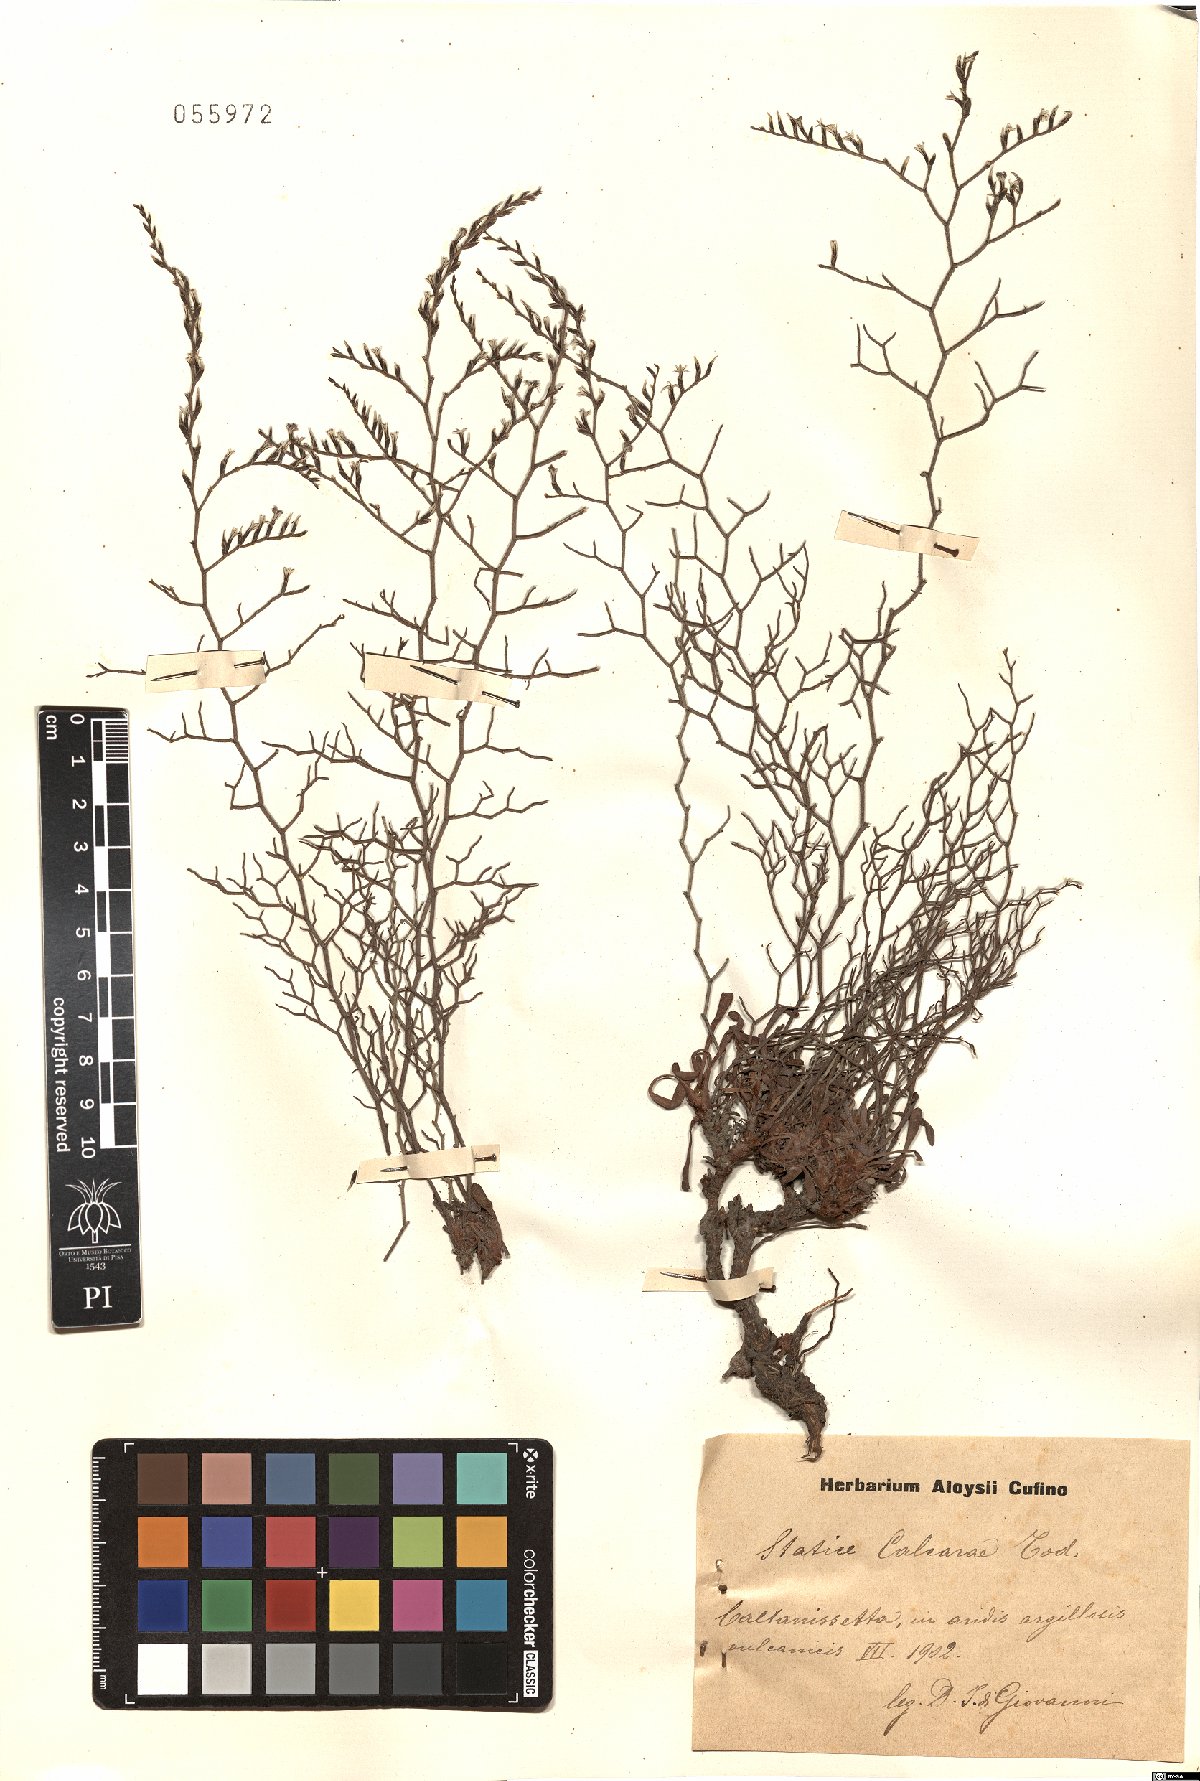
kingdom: Plantae
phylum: Tracheophyta
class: Magnoliopsida
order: Caryophyllales
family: Plumbaginaceae
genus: Limonium
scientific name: Limonium calcarae
